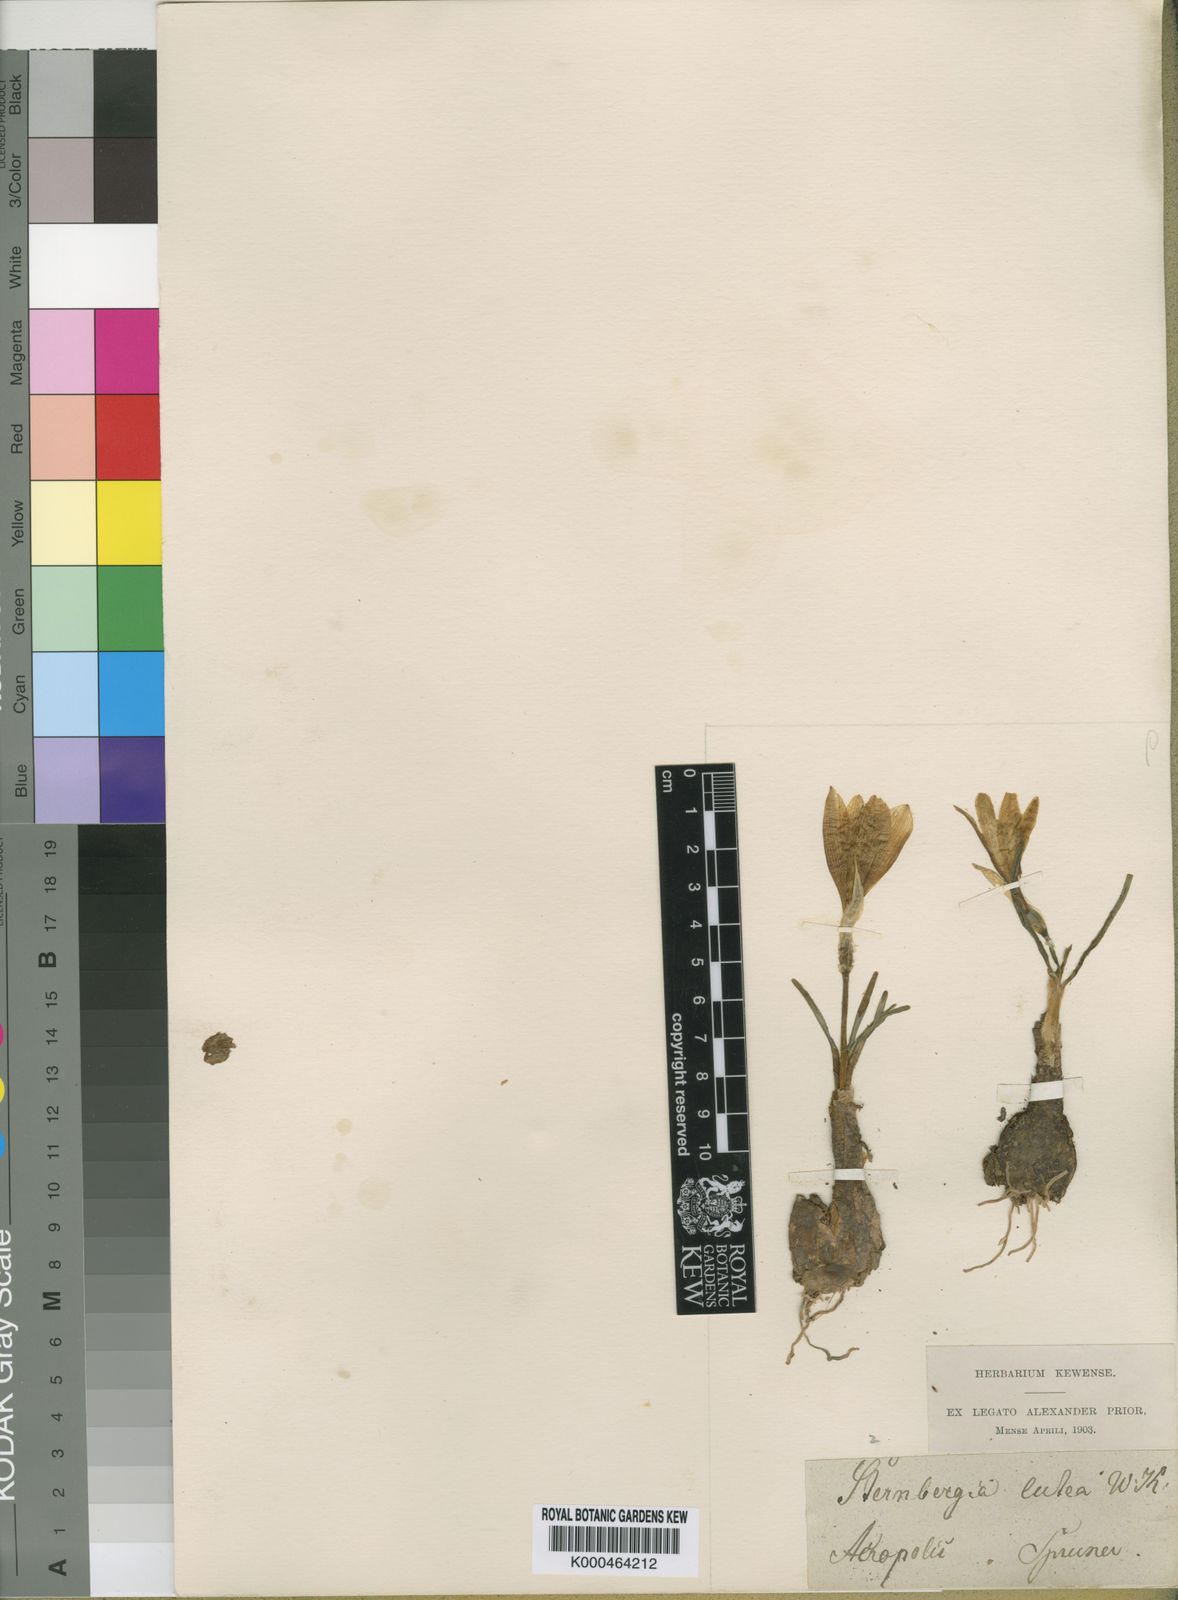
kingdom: Plantae
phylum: Tracheophyta
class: Liliopsida
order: Asparagales
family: Amaryllidaceae
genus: Sternbergia
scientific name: Sternbergia
